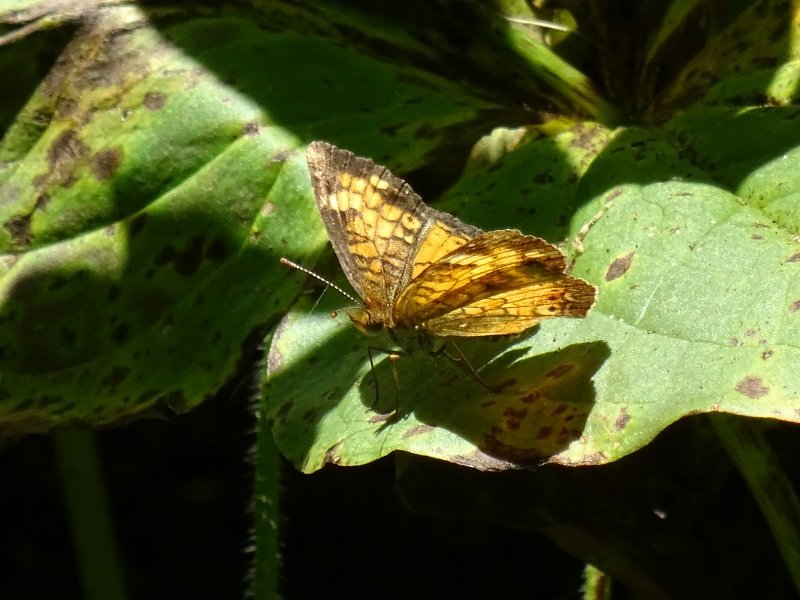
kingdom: Animalia
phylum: Arthropoda
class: Insecta
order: Lepidoptera
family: Nymphalidae
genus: Phyciodes
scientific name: Phyciodes tharos
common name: Northern Crescent
